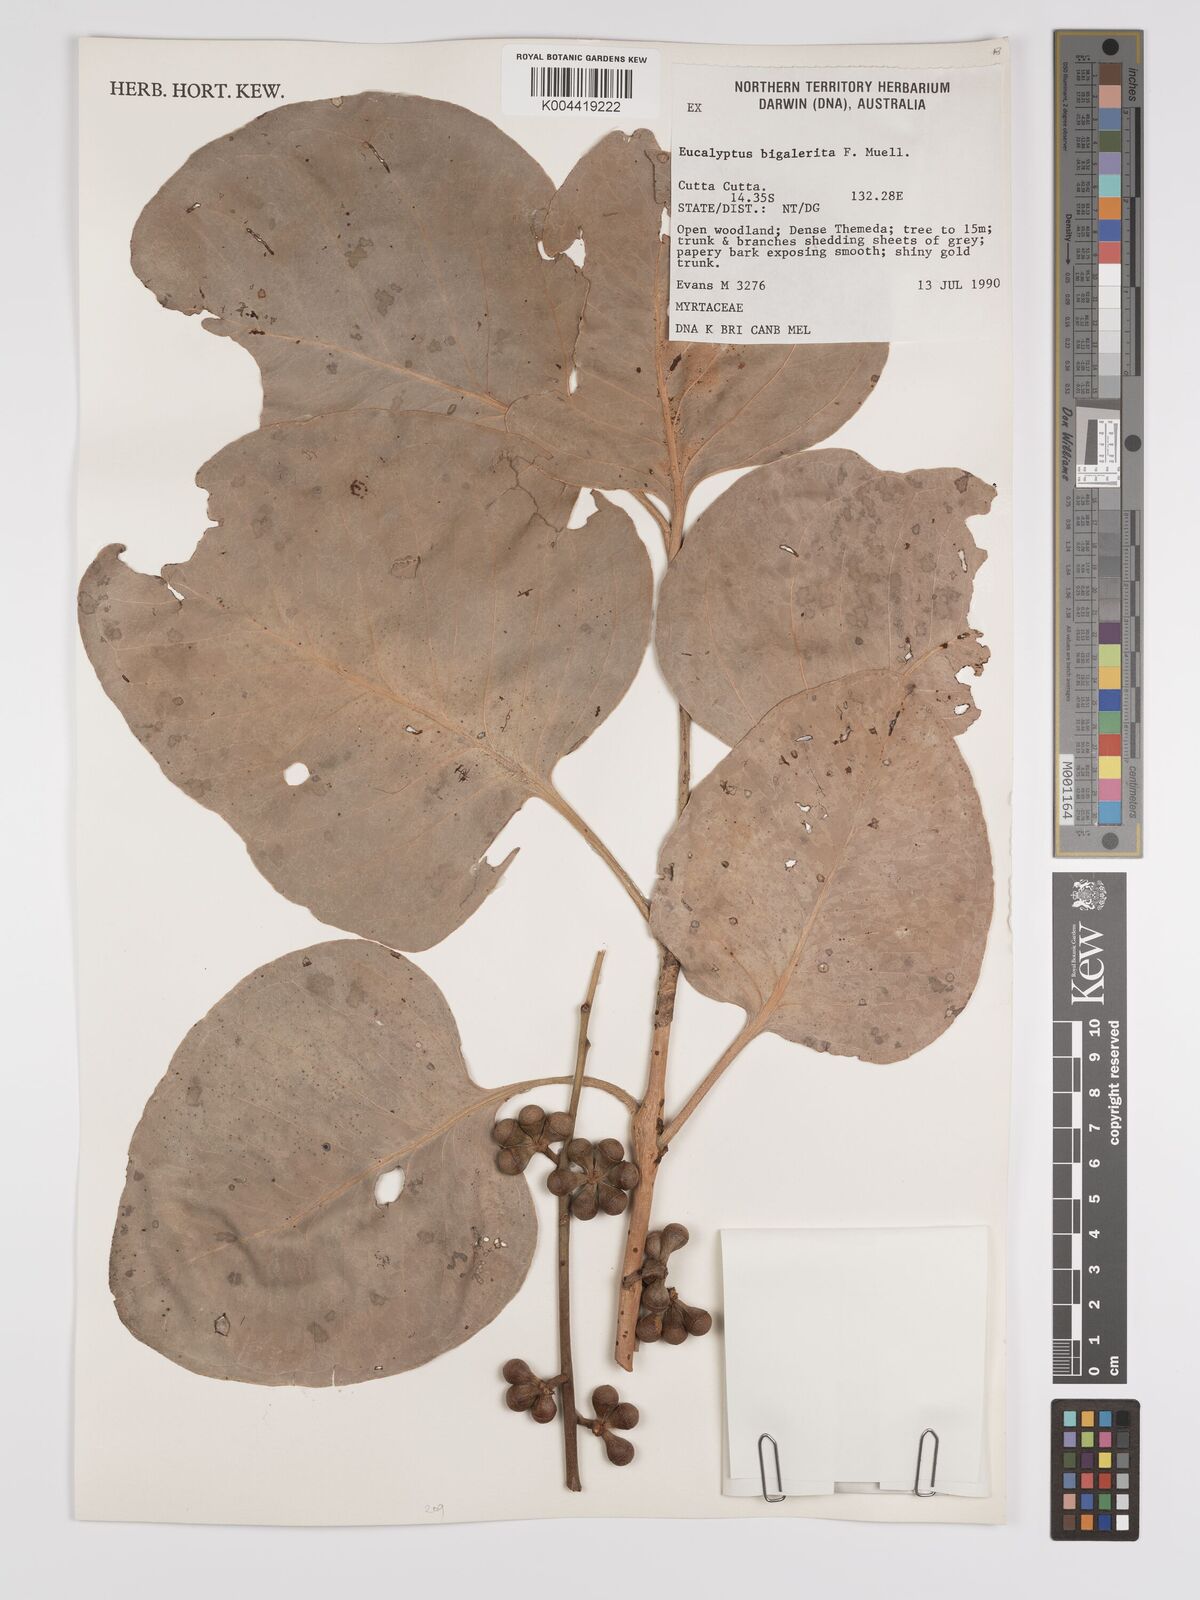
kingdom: Plantae
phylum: Tracheophyta
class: Magnoliopsida
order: Myrtales
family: Myrtaceae
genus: Eucalyptus
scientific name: Eucalyptus bigalerita
